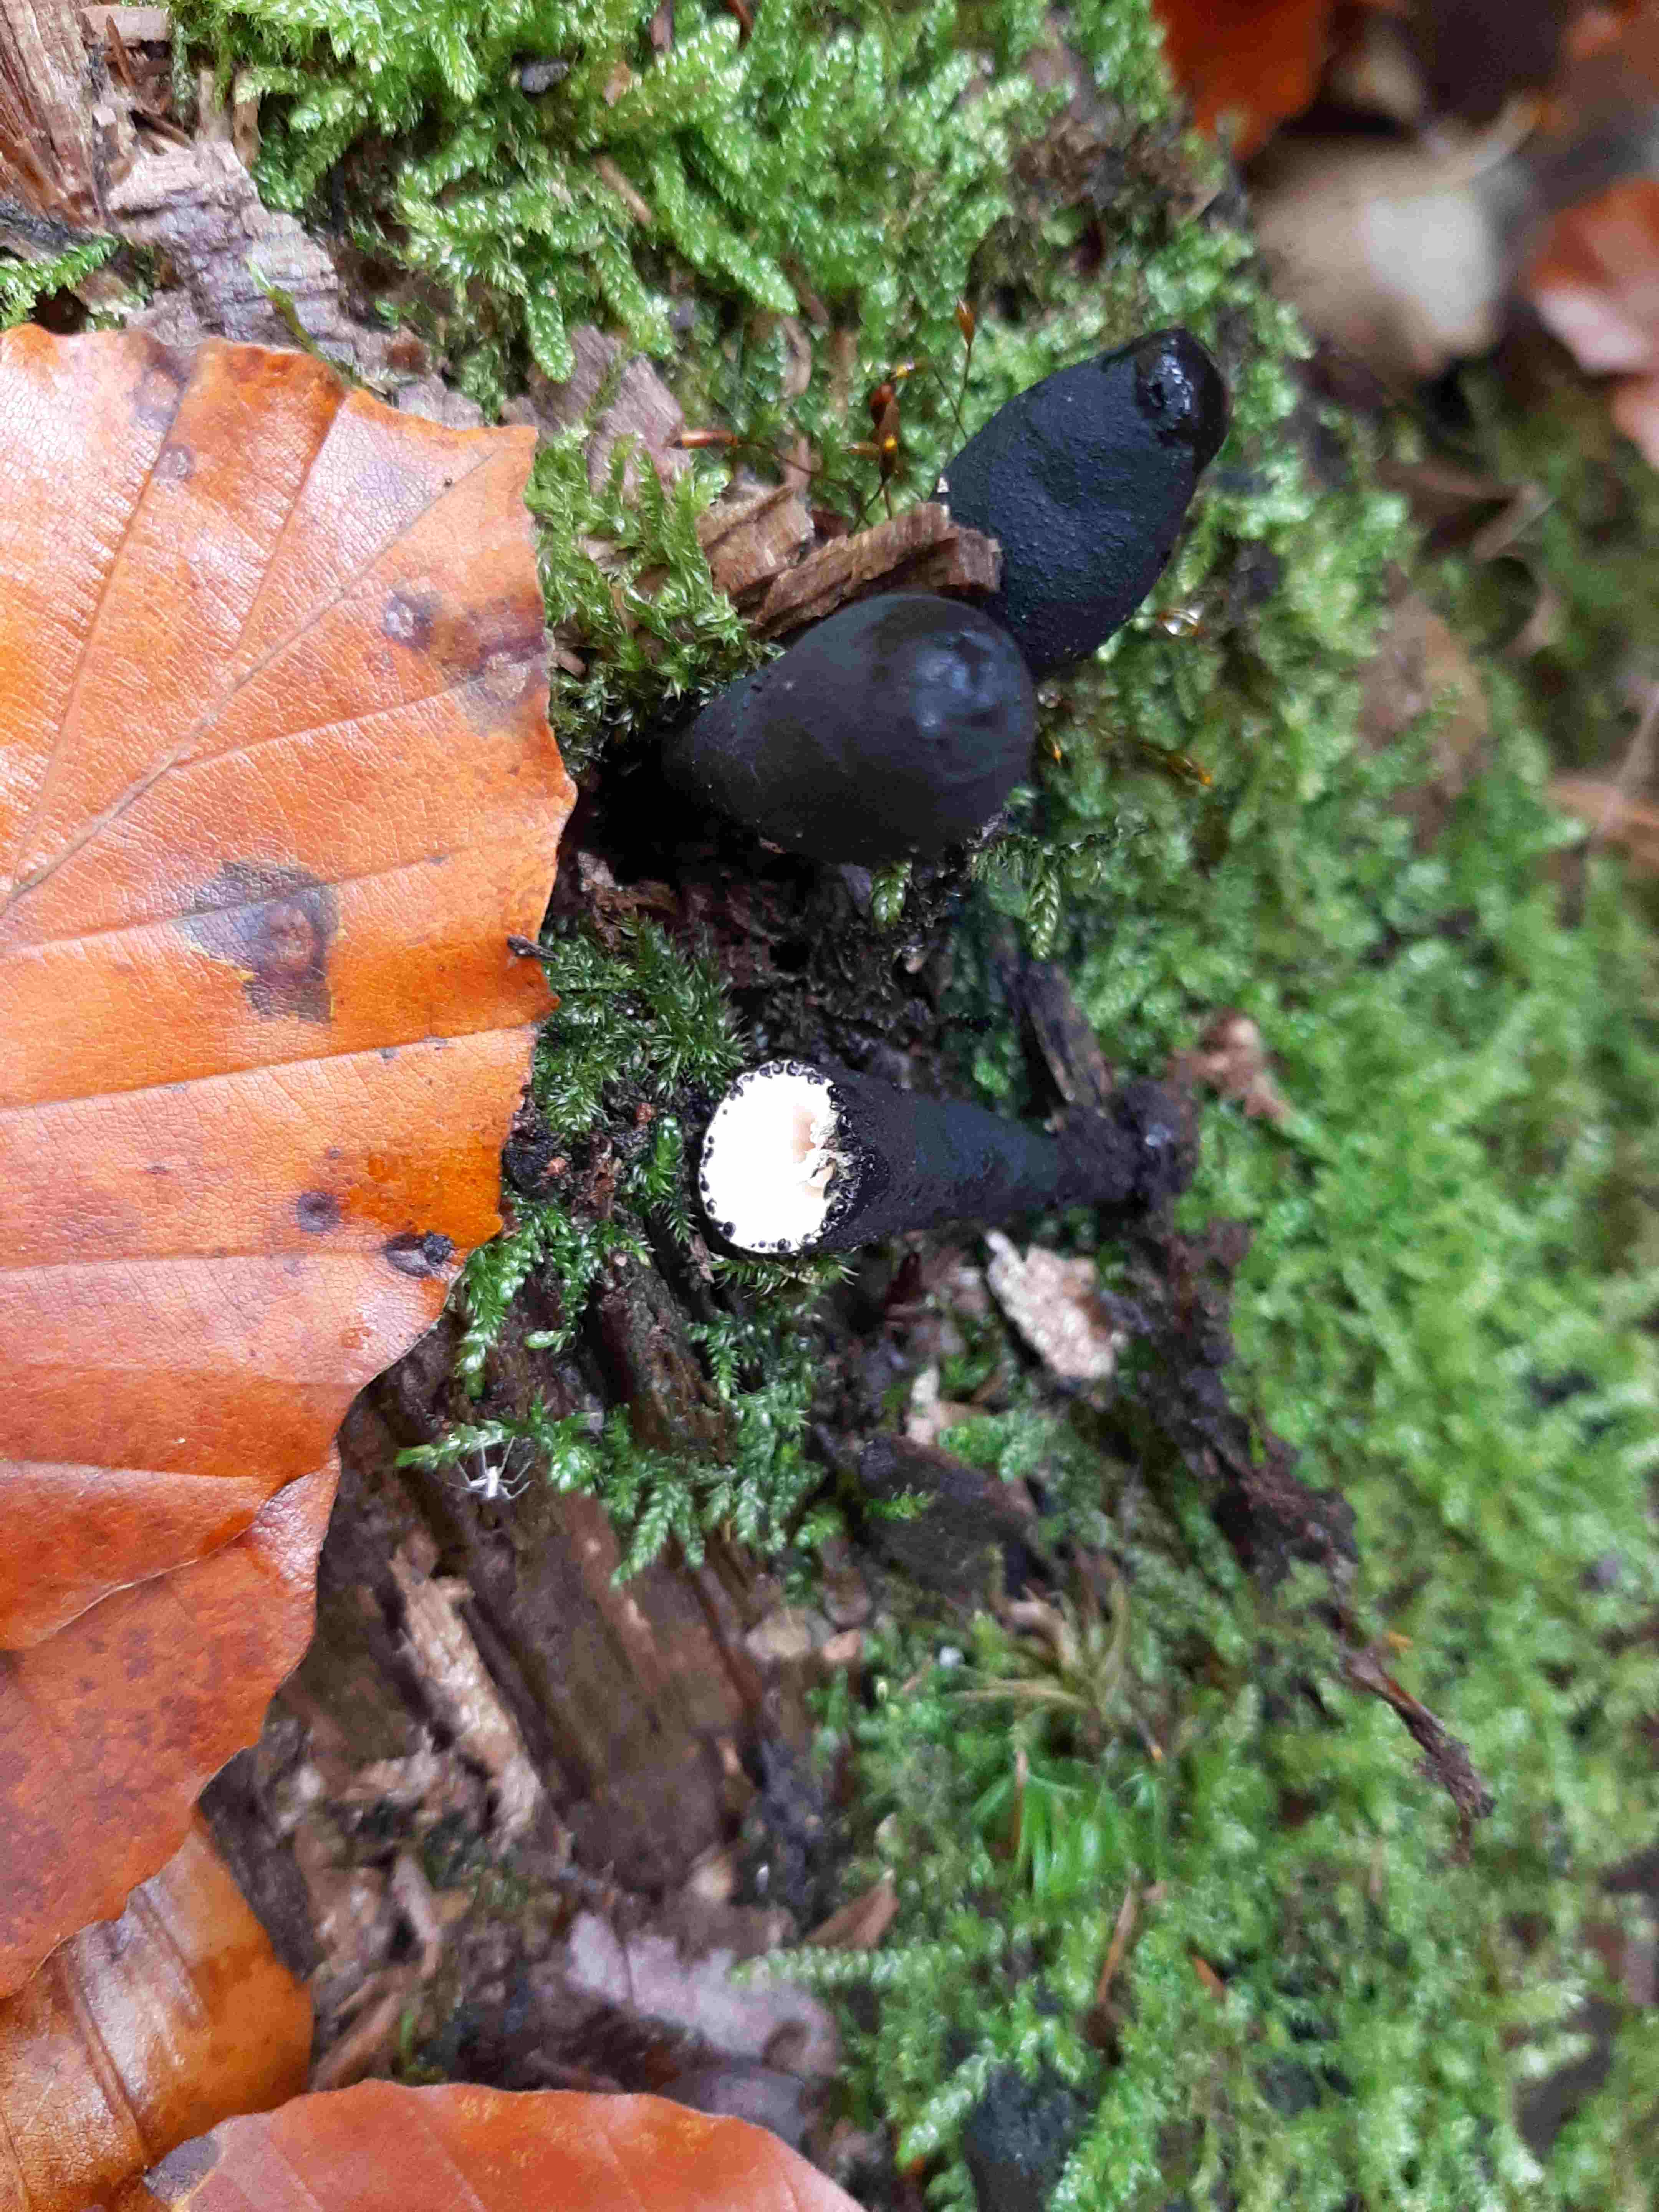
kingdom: Fungi
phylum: Ascomycota
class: Sordariomycetes
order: Xylariales
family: Xylariaceae
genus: Xylaria
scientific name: Xylaria longipes
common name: slank stødsvamp
